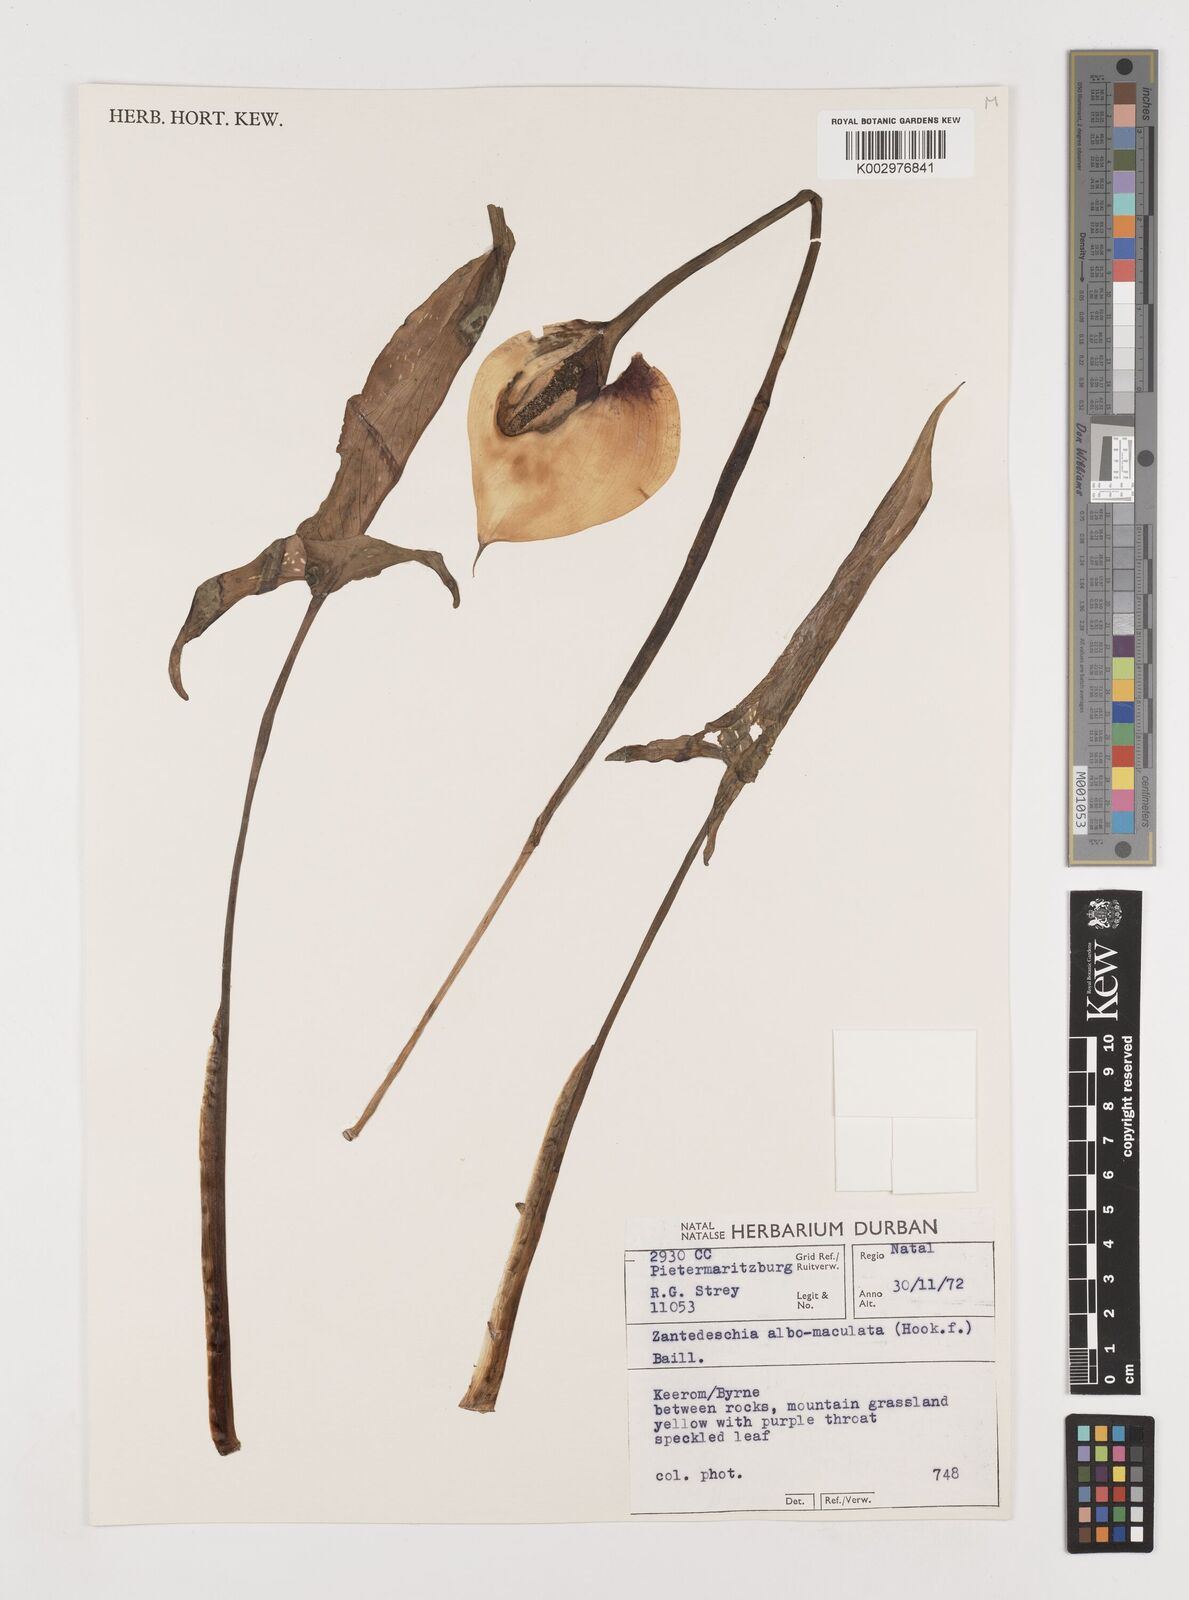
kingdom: Plantae
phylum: Tracheophyta
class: Liliopsida
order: Alismatales
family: Araceae
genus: Zantedeschia
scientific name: Zantedeschia albomaculata
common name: Spotted calla lily
